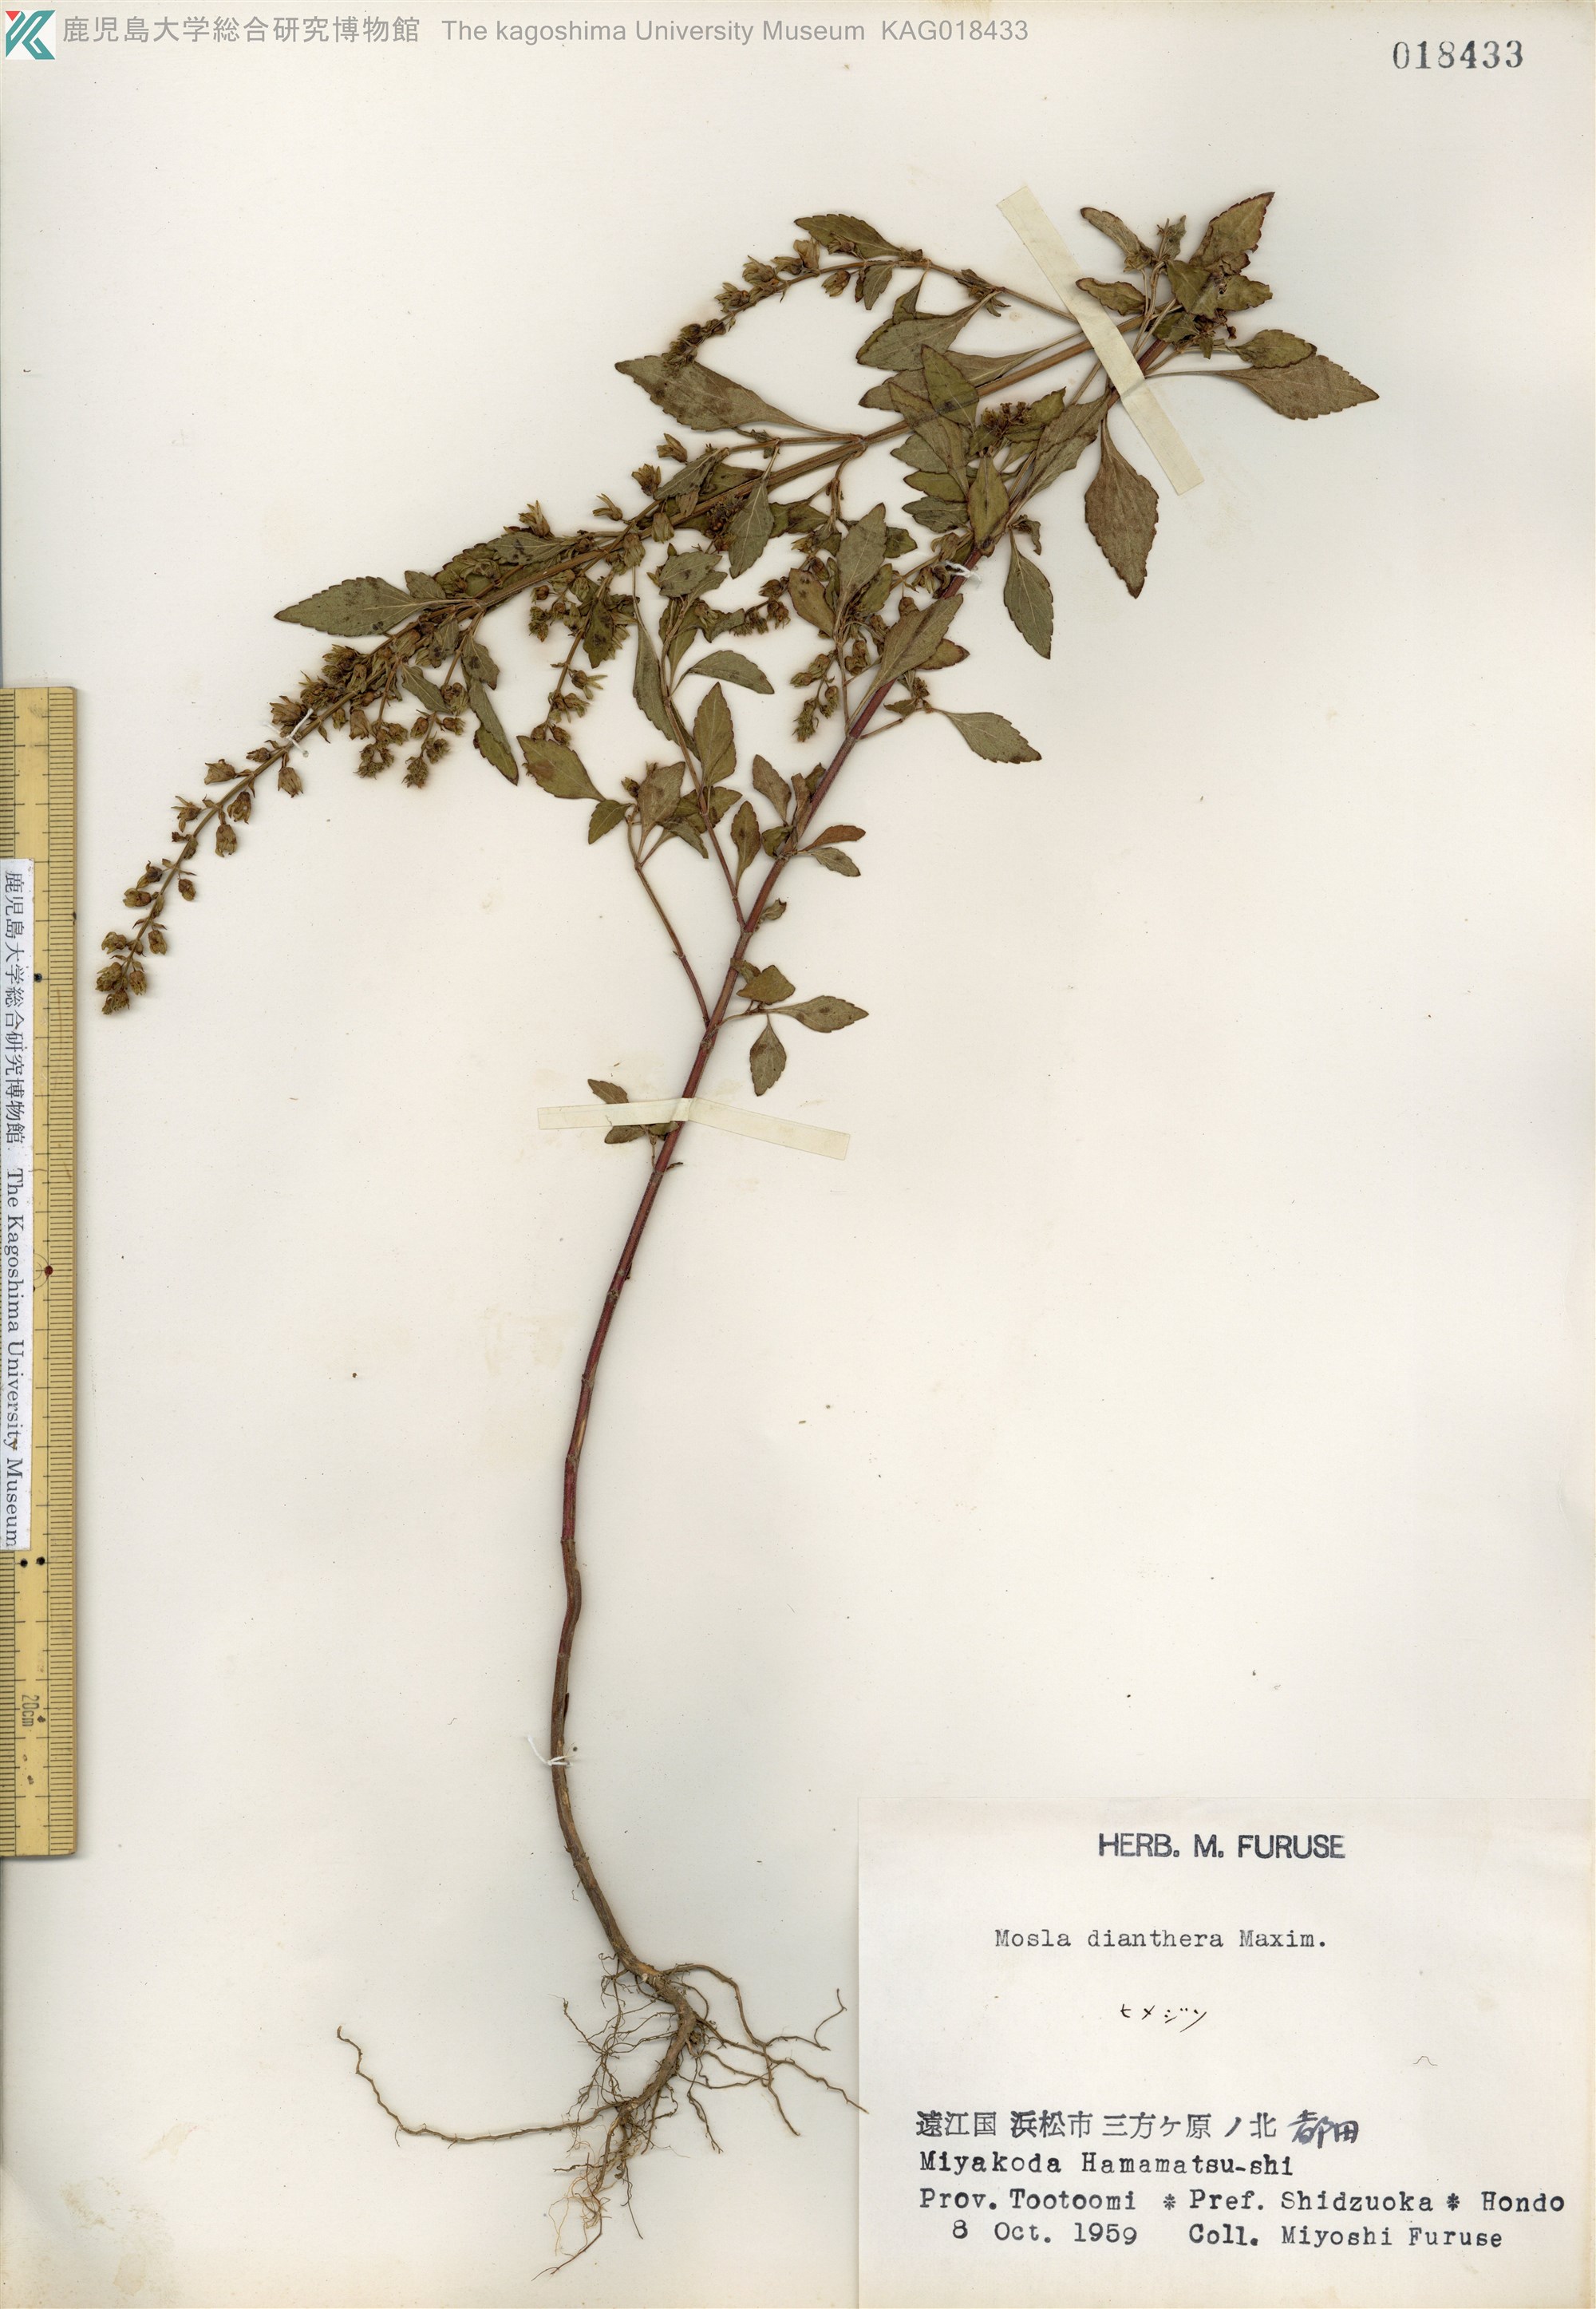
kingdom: Plantae
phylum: Tracheophyta
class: Magnoliopsida
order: Lamiales
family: Lamiaceae
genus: Mosla
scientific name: Mosla dianthera
